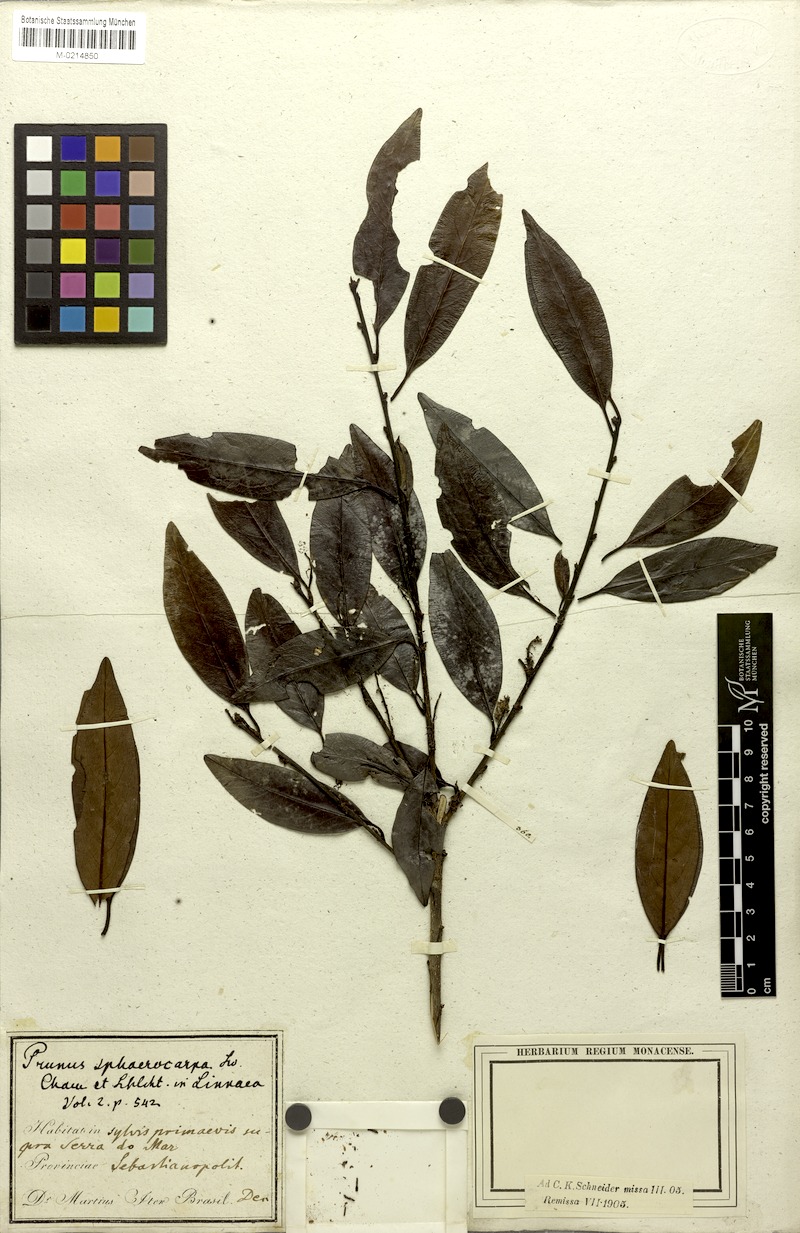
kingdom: Plantae
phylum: Tracheophyta
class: Magnoliopsida
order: Rosales
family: Rosaceae
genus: Prunus
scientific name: Prunus brasiliensis
